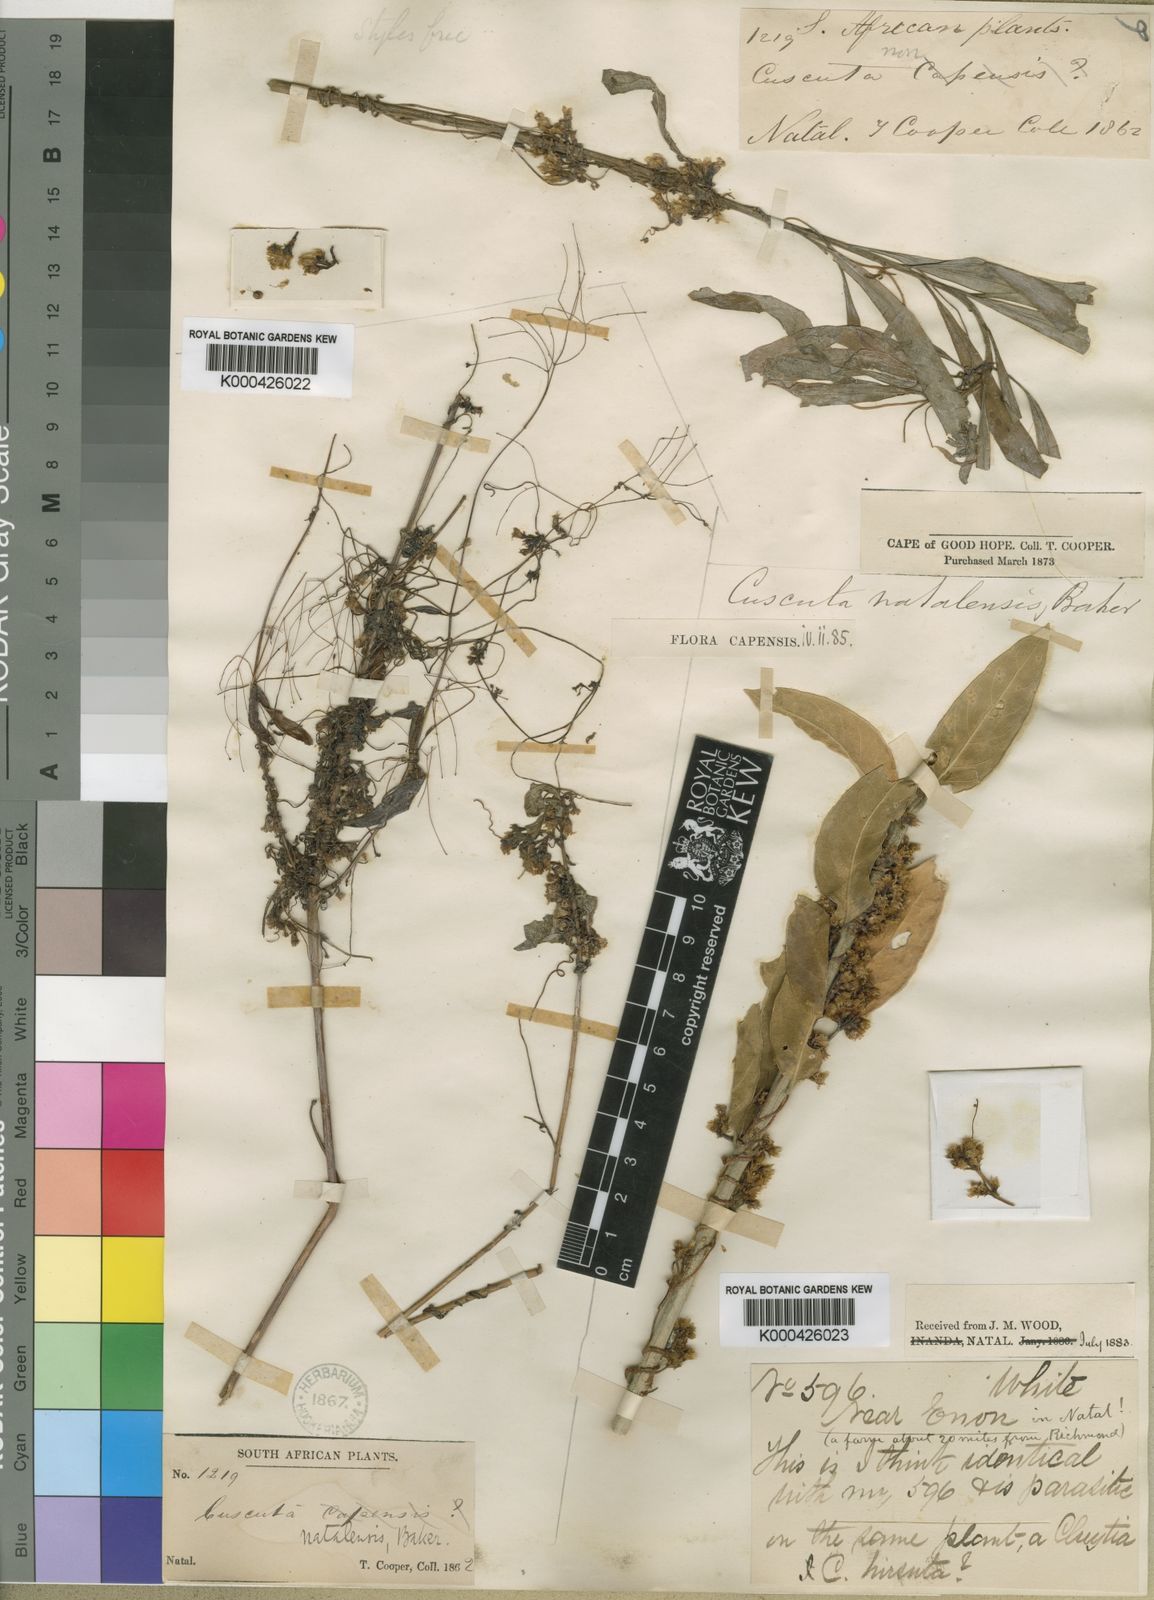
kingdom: Plantae
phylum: Tracheophyta
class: Magnoliopsida
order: Solanales
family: Convolvulaceae
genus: Cuscuta
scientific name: Cuscuta natalensis
